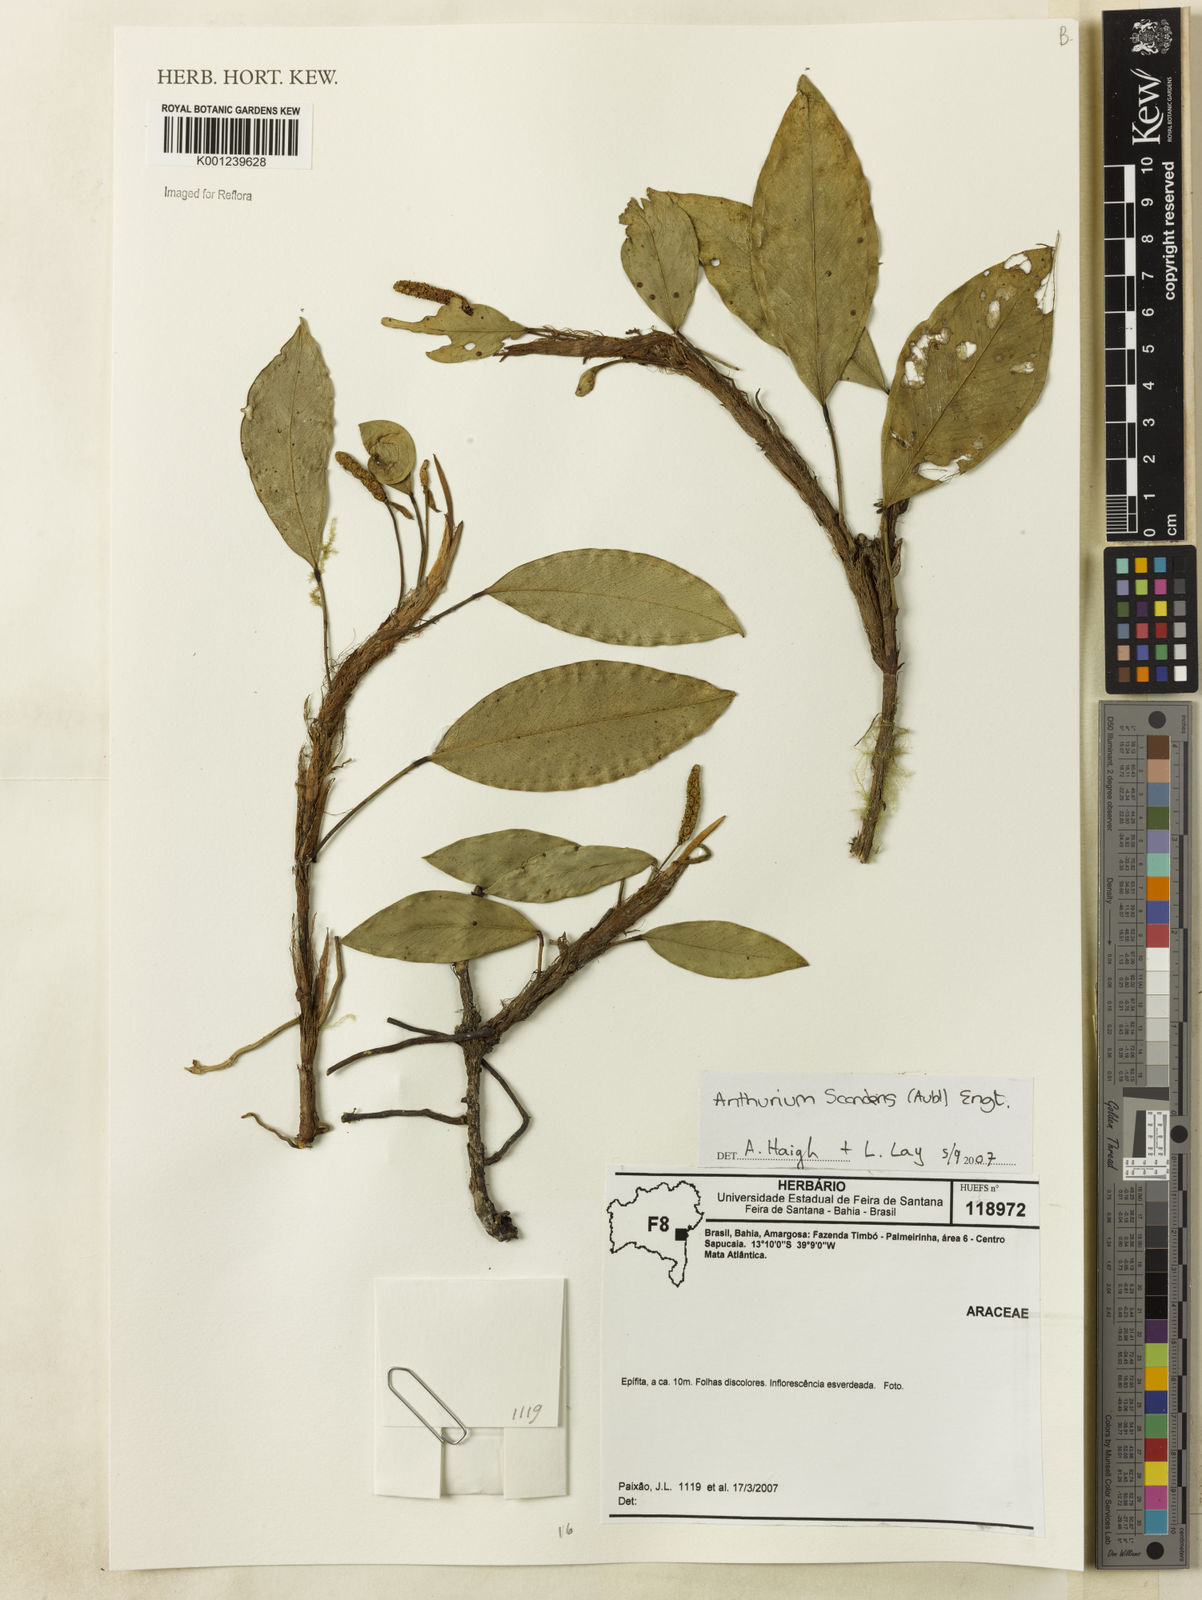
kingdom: Plantae
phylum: Tracheophyta
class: Liliopsida
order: Alismatales
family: Araceae
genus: Anthurium
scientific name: Anthurium scandens
